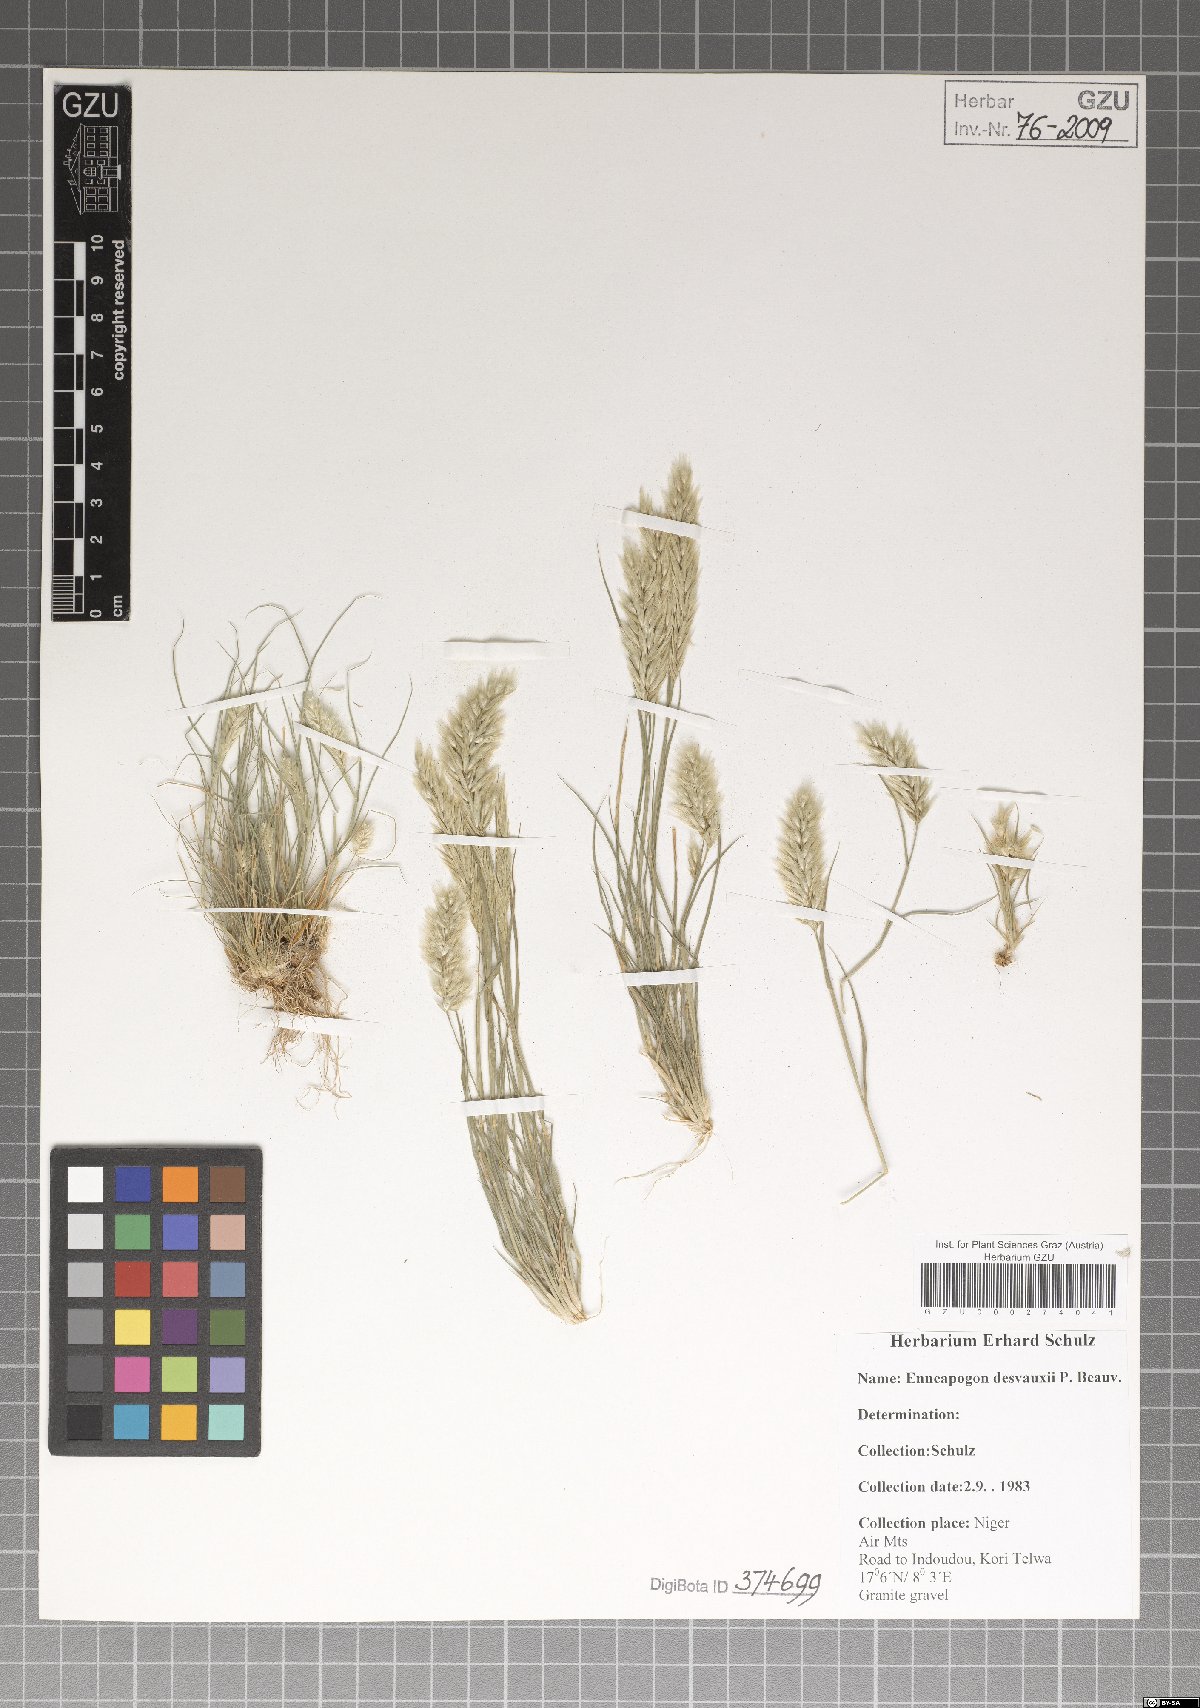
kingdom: Plantae
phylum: Tracheophyta
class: Liliopsida
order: Poales
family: Poaceae
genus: Enneapogon
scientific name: Enneapogon desvauxii
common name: Feather pappus grass
